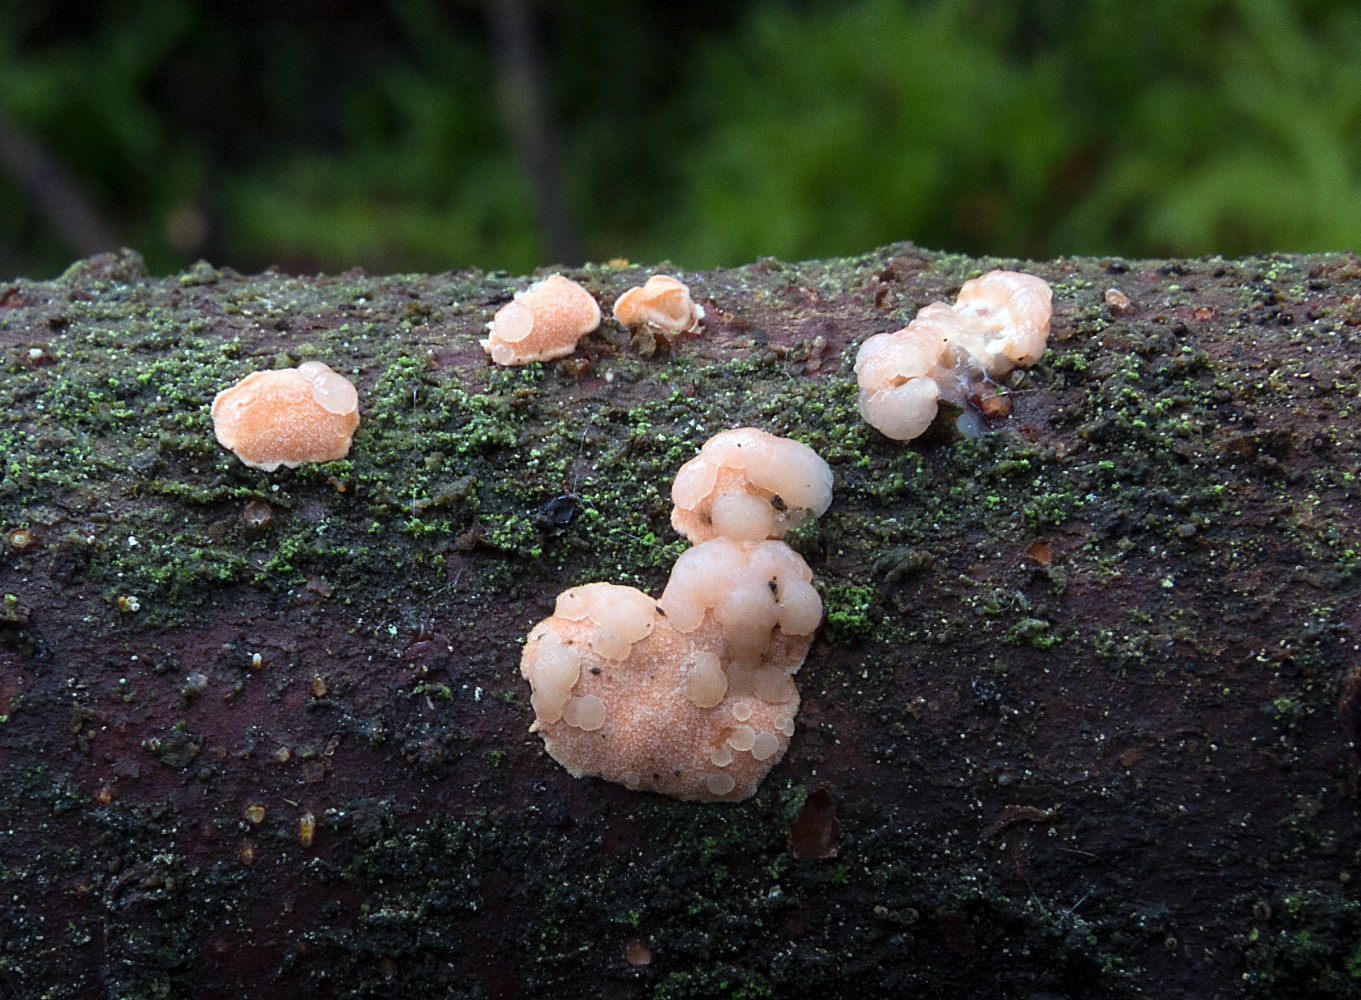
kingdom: Fungi
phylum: Basidiomycota
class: Tremellomycetes
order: Tremellales
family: Tremellaceae
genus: Phaeotremella
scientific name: Phaeotremella simplex
